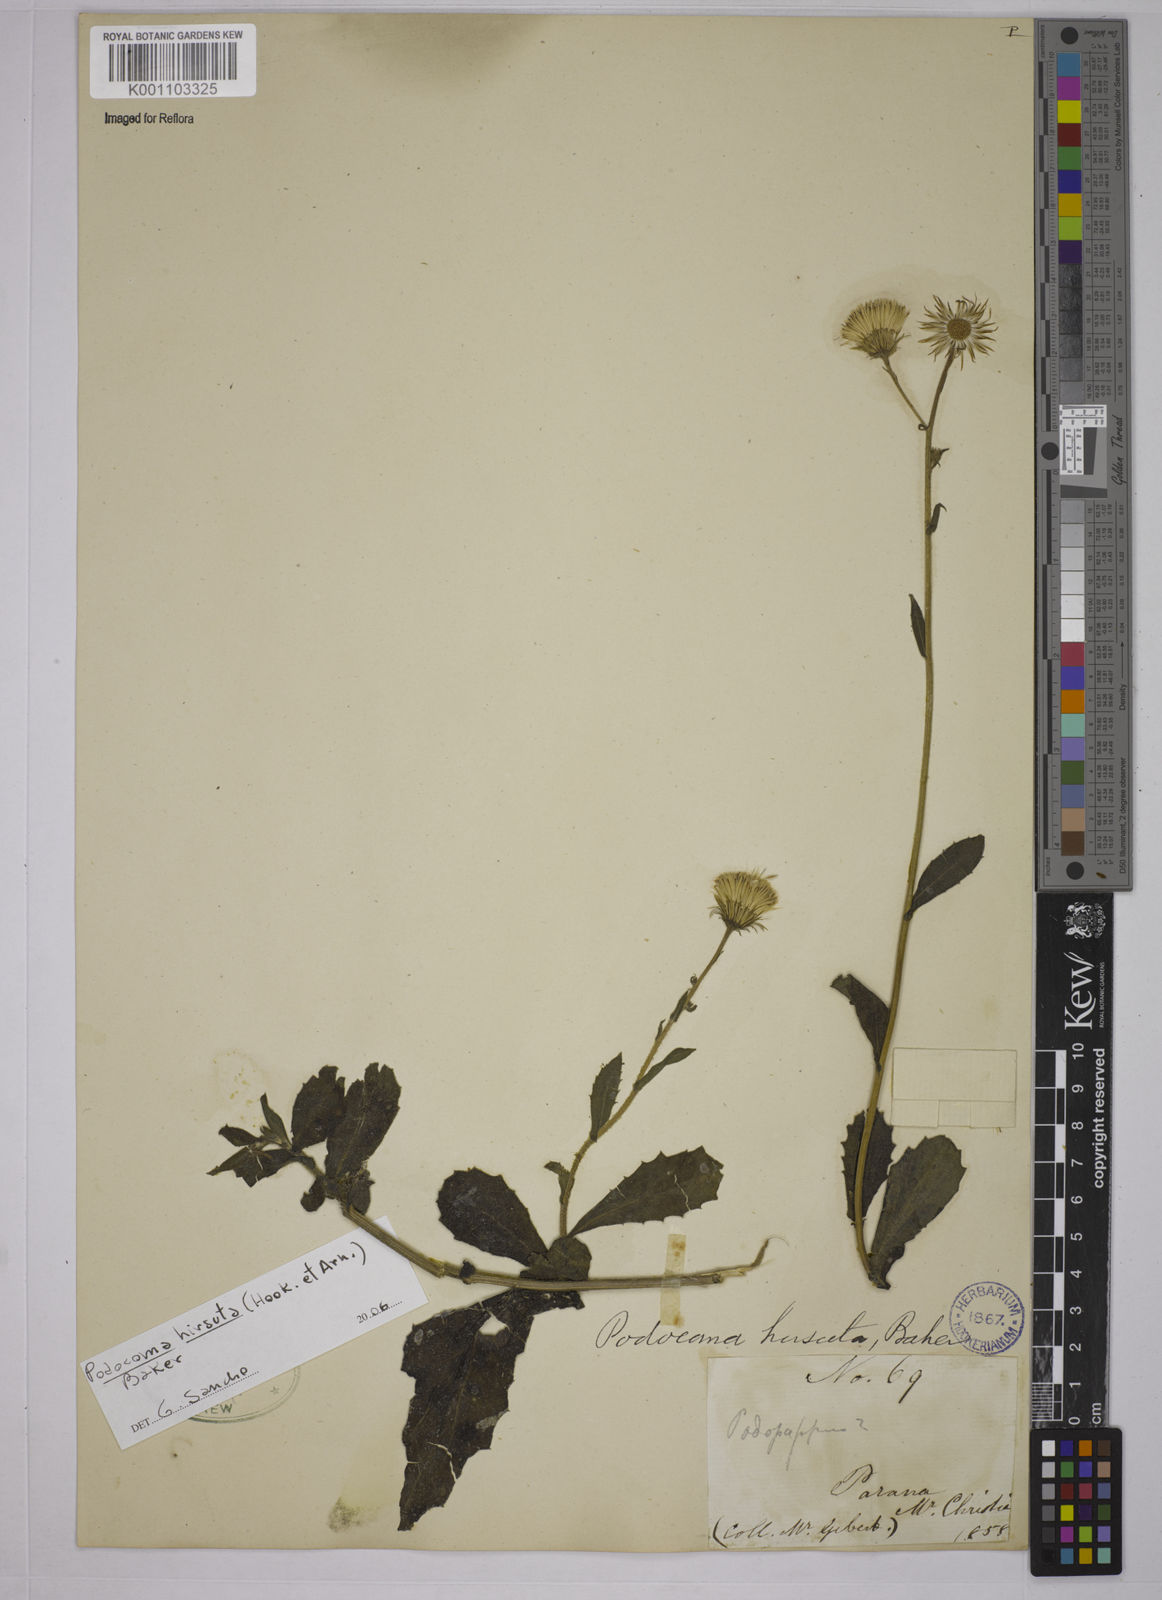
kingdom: Plantae
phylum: Tracheophyta
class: Magnoliopsida
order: Asterales
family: Asteraceae
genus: Podocoma
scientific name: Podocoma hirsuta
